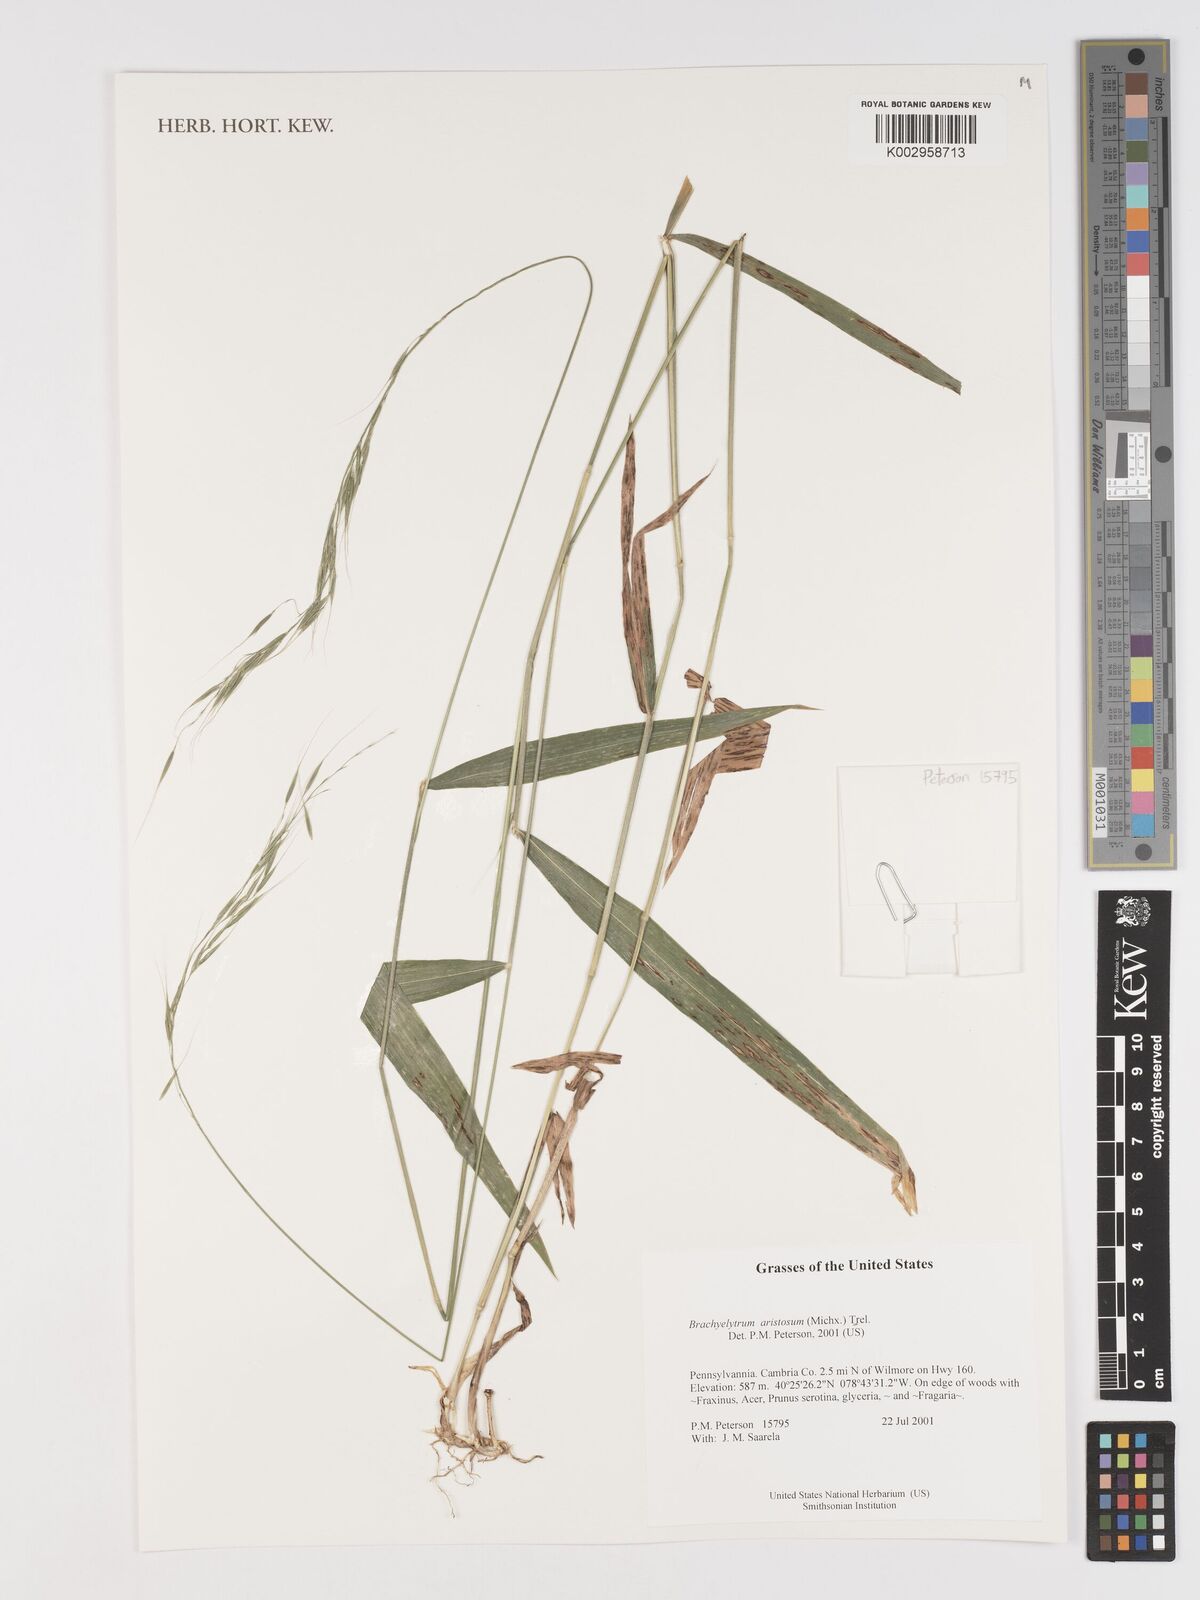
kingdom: Plantae
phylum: Tracheophyta
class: Liliopsida
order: Poales
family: Poaceae
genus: Brachyelytrum
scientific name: Brachyelytrum aristosum
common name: Northern shorthusk
